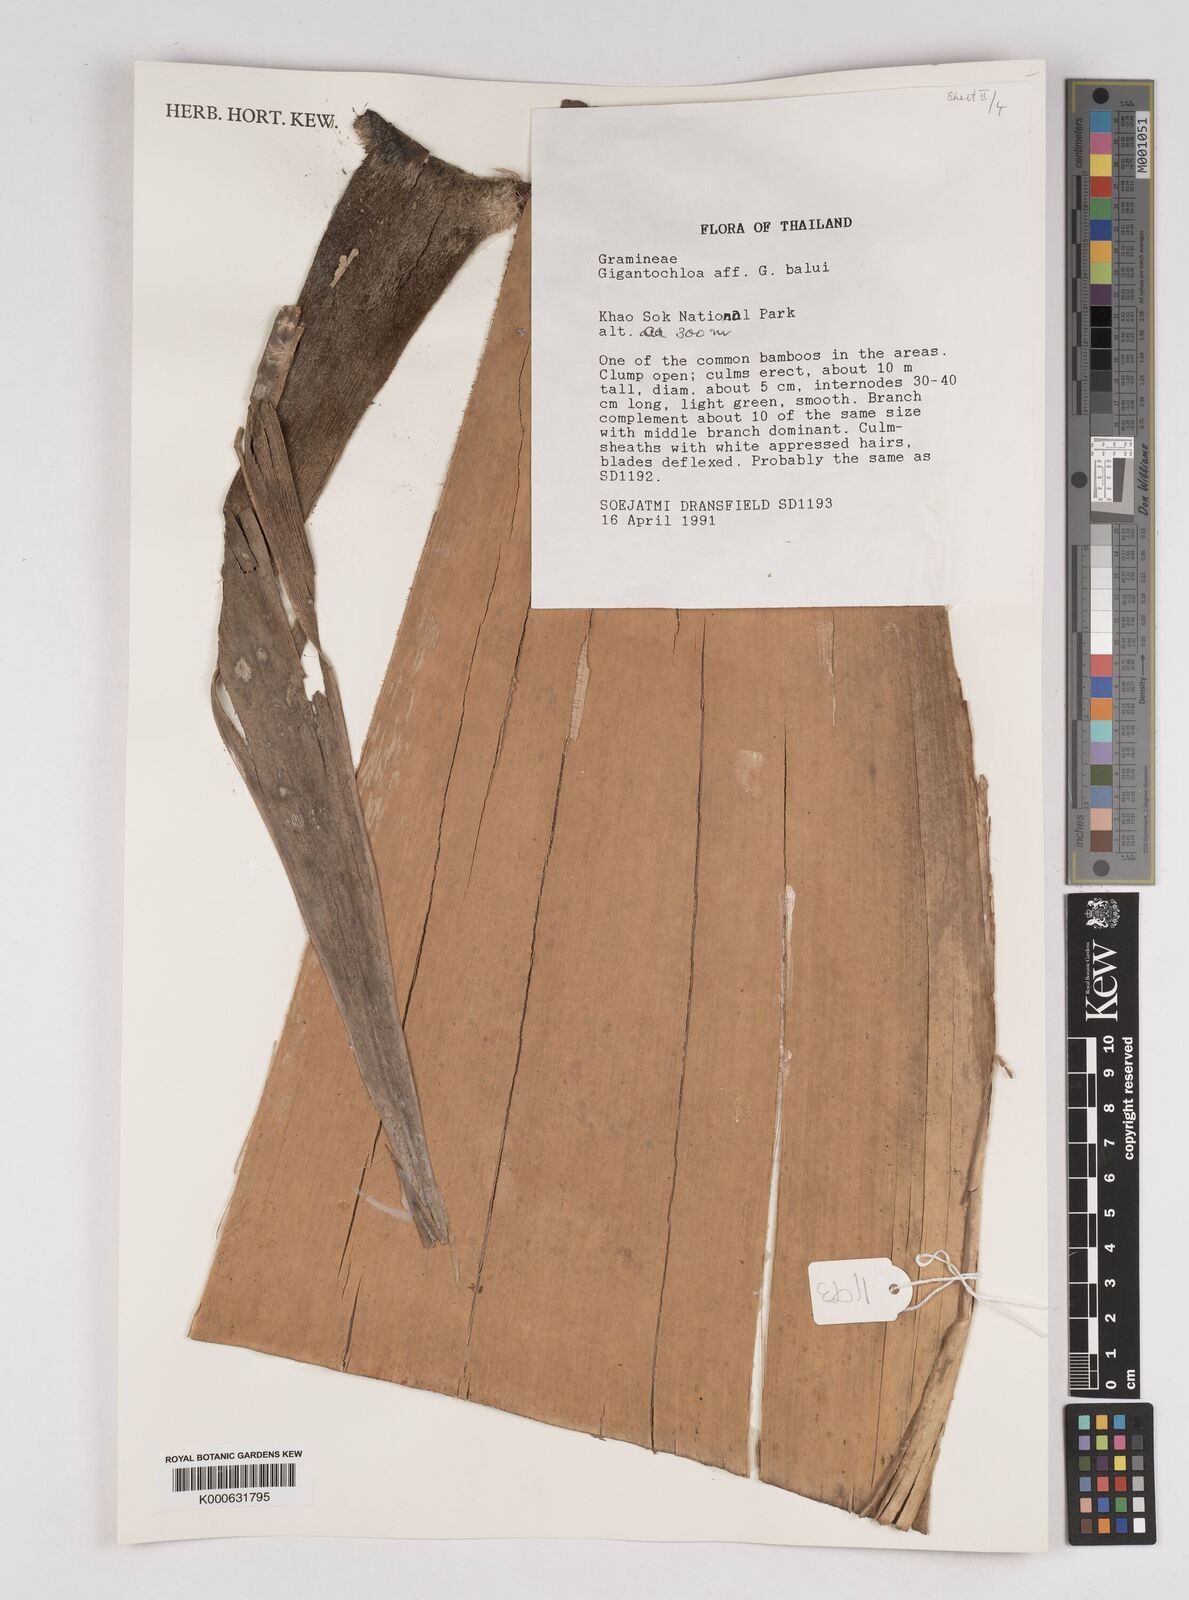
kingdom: Plantae
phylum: Tracheophyta
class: Liliopsida
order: Poales
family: Poaceae
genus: Gigantochloa
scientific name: Gigantochloa
